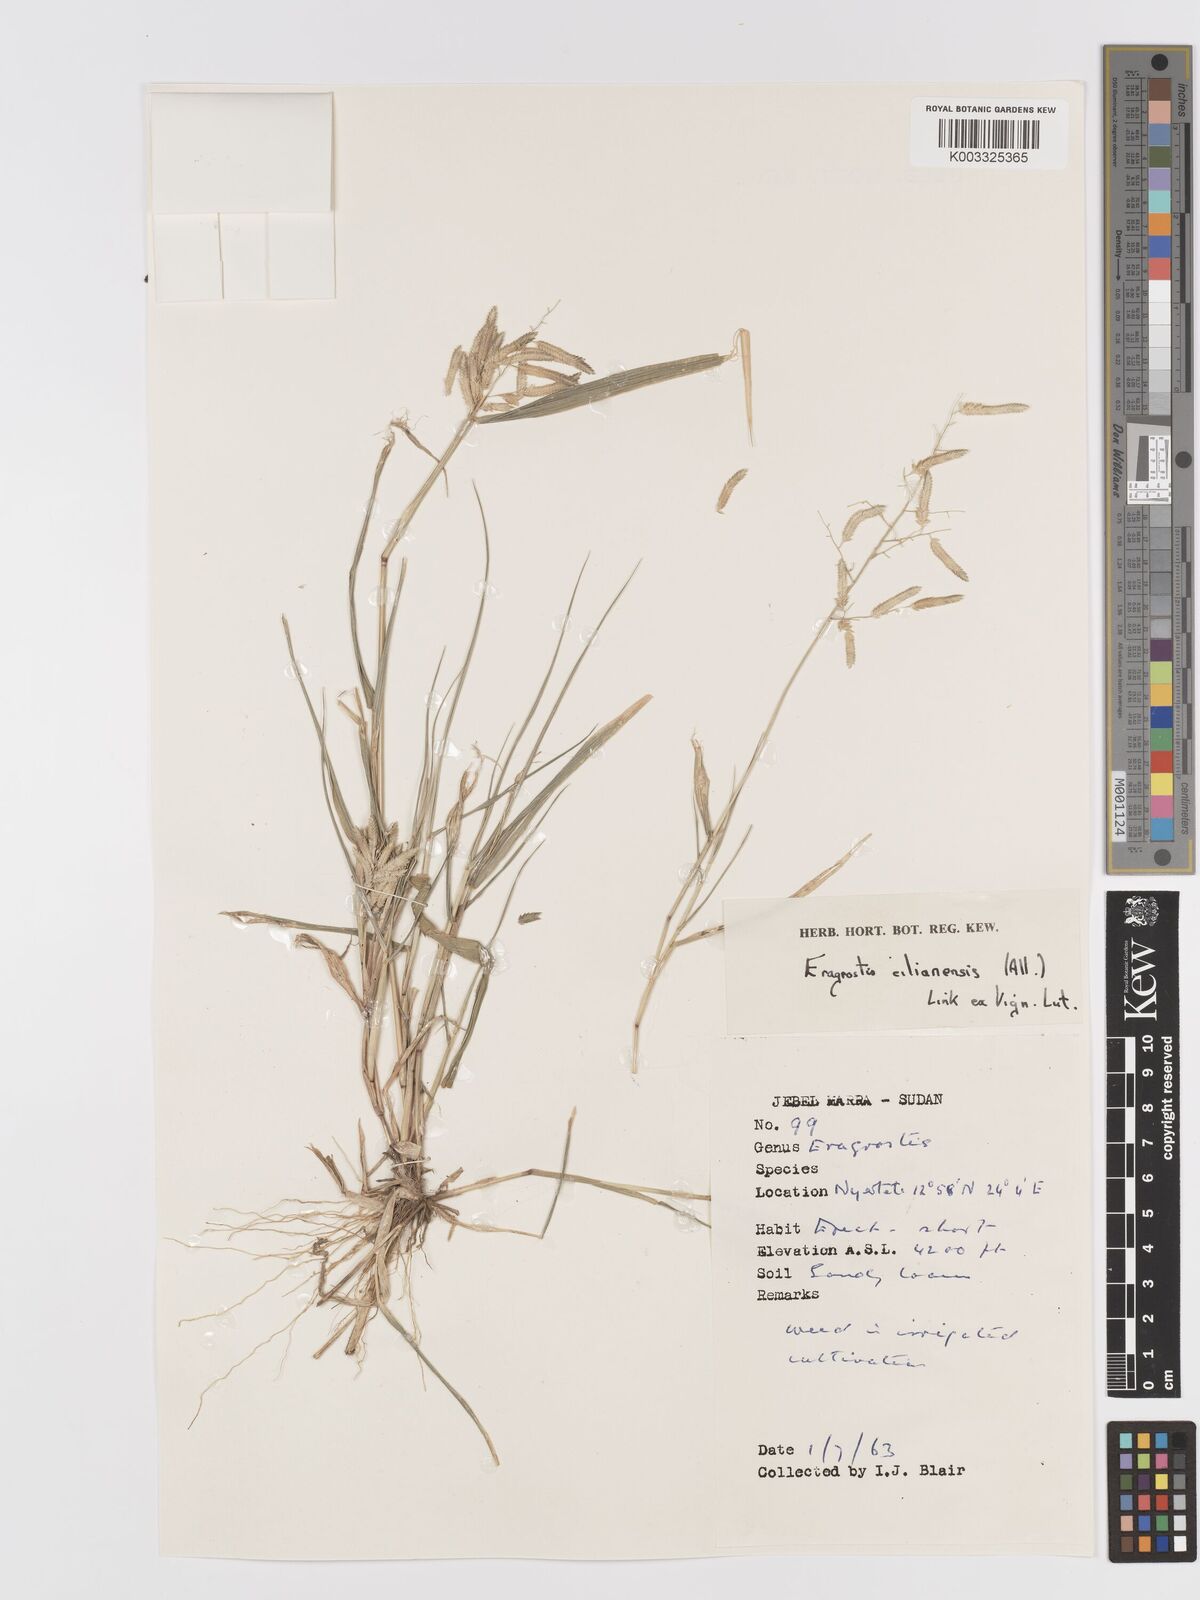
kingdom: Plantae
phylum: Tracheophyta
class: Liliopsida
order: Poales
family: Poaceae
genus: Eragrostis
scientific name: Eragrostis cilianensis
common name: Stinkgrass
